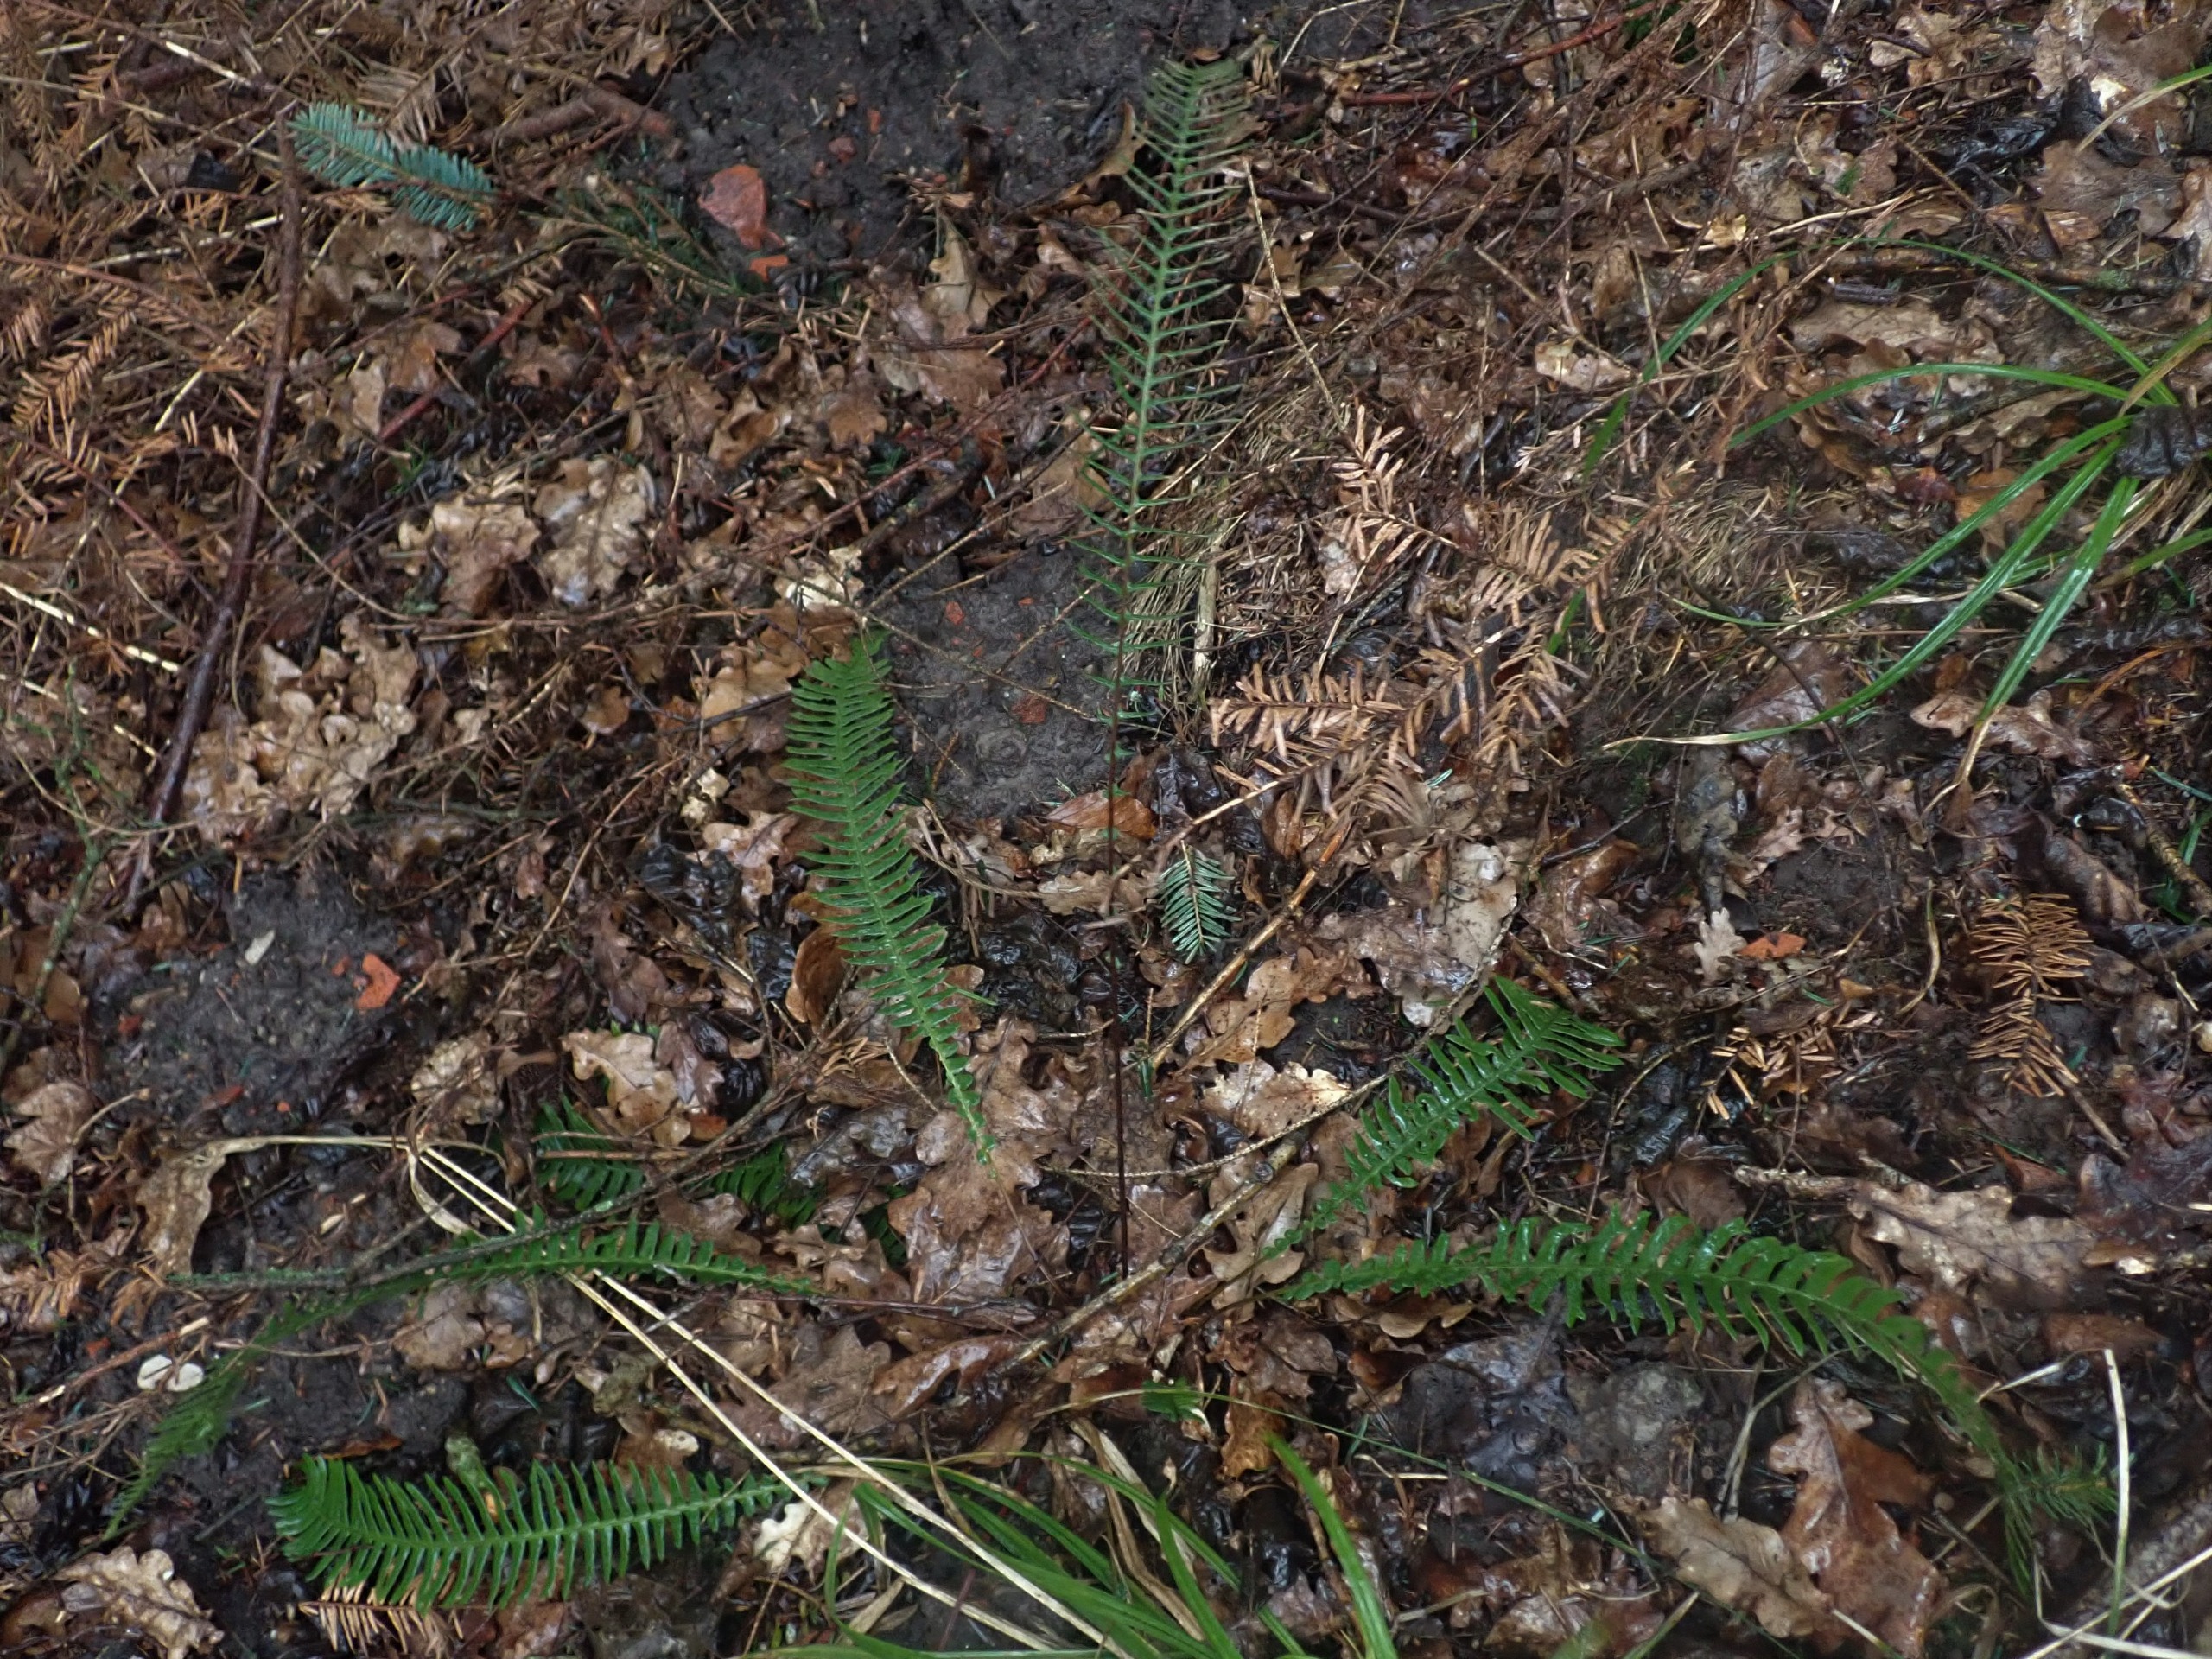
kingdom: Plantae
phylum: Tracheophyta
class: Polypodiopsida
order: Polypodiales
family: Blechnaceae
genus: Struthiopteris
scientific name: Struthiopteris spicant
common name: Kambregne
